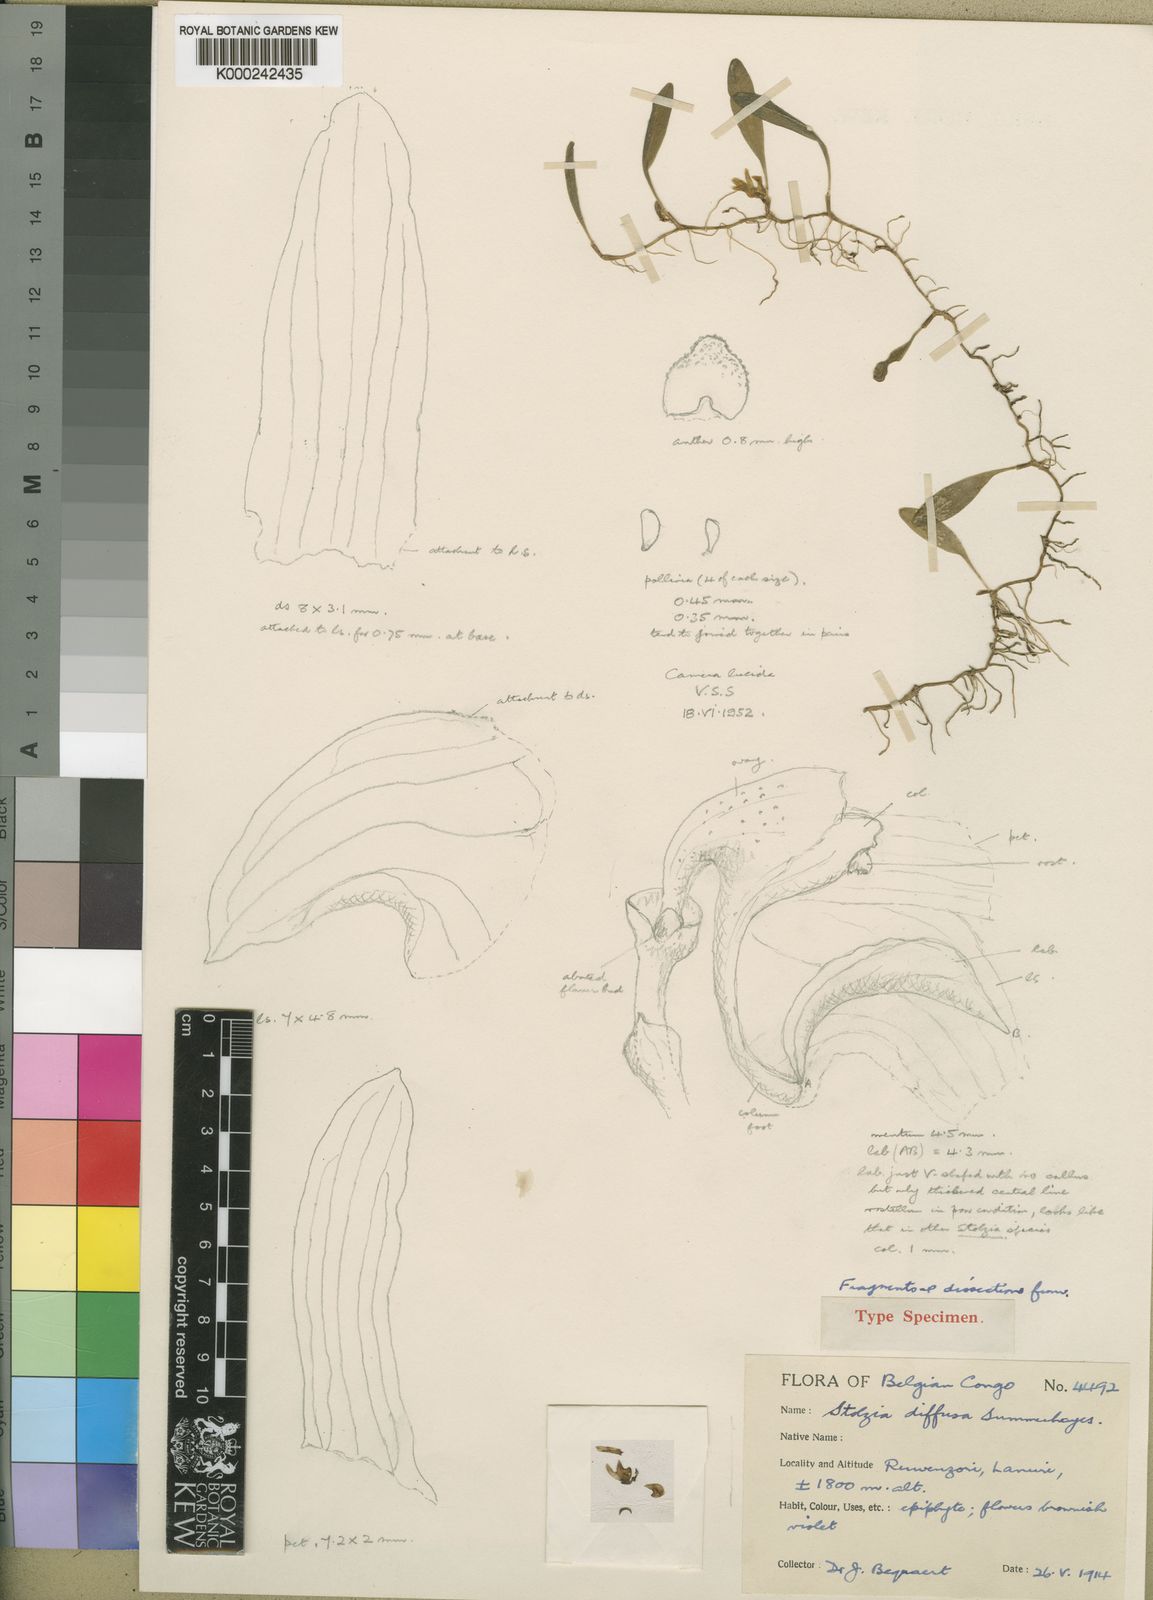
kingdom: Plantae
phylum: Tracheophyta
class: Liliopsida
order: Asparagales
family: Orchidaceae
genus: Porpax
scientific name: Porpax cupuligera
